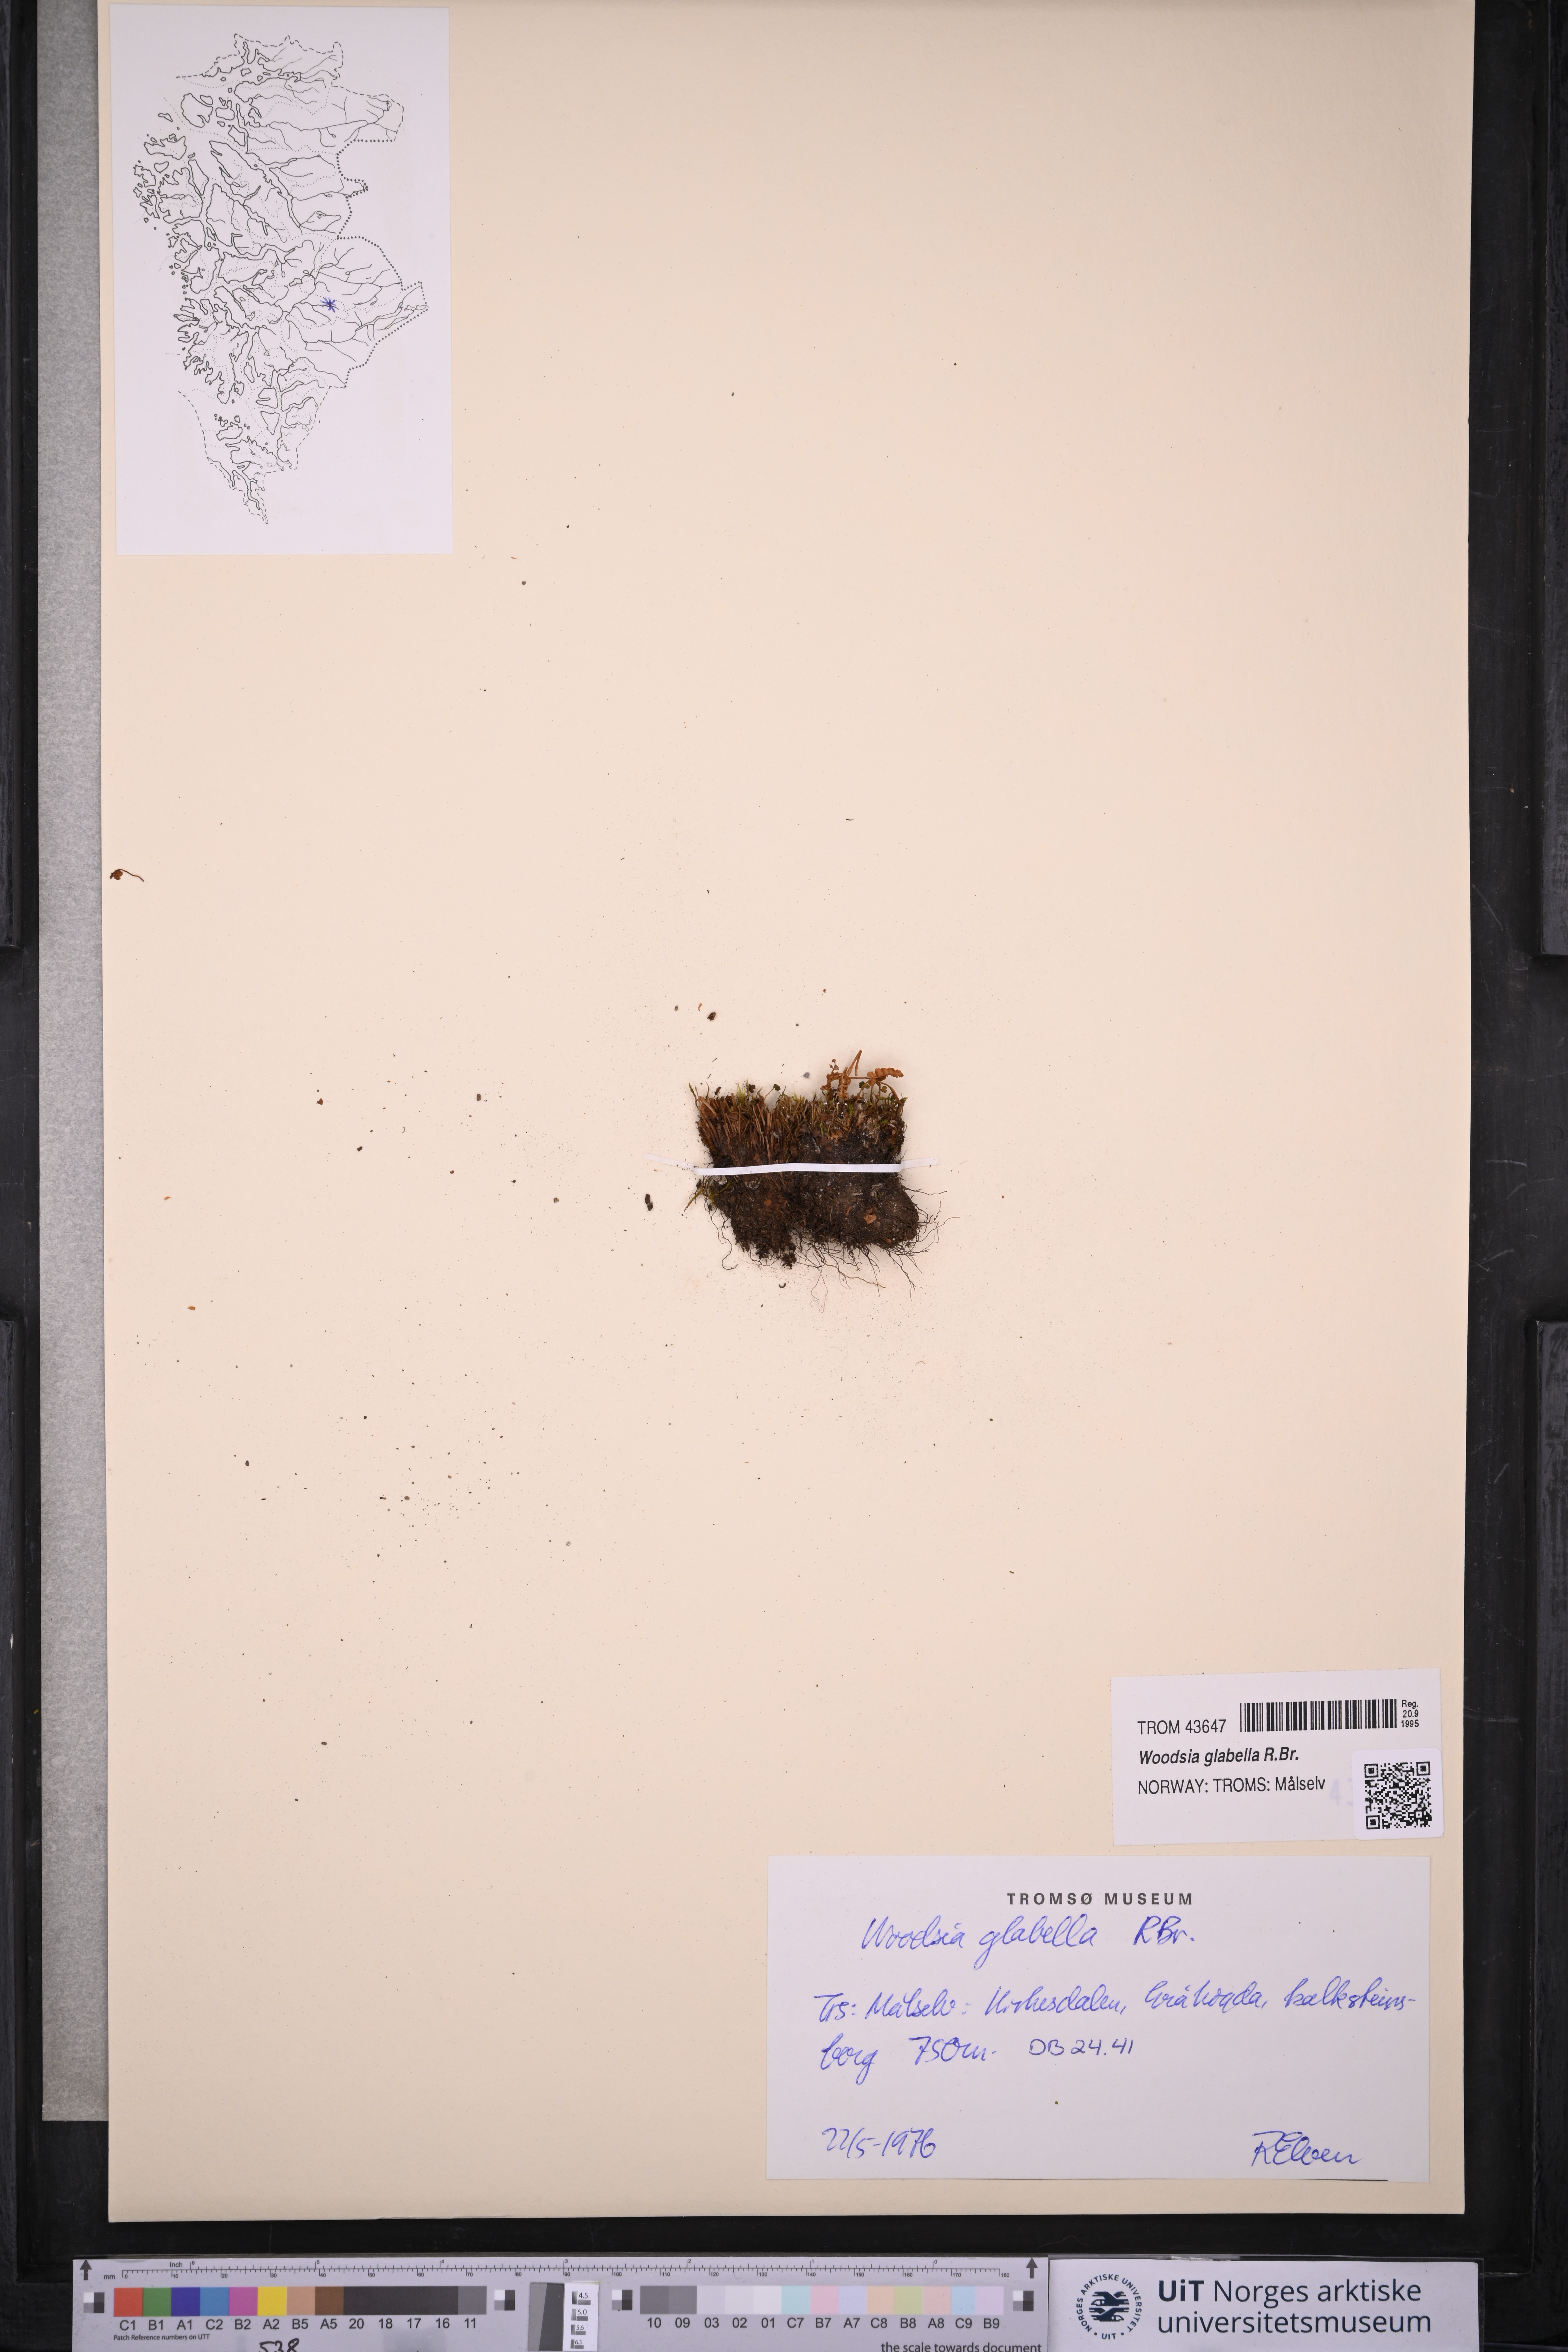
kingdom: Plantae
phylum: Tracheophyta
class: Polypodiopsida
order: Polypodiales
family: Woodsiaceae
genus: Woodsia
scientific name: Woodsia glabella
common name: Smooth woodsia
